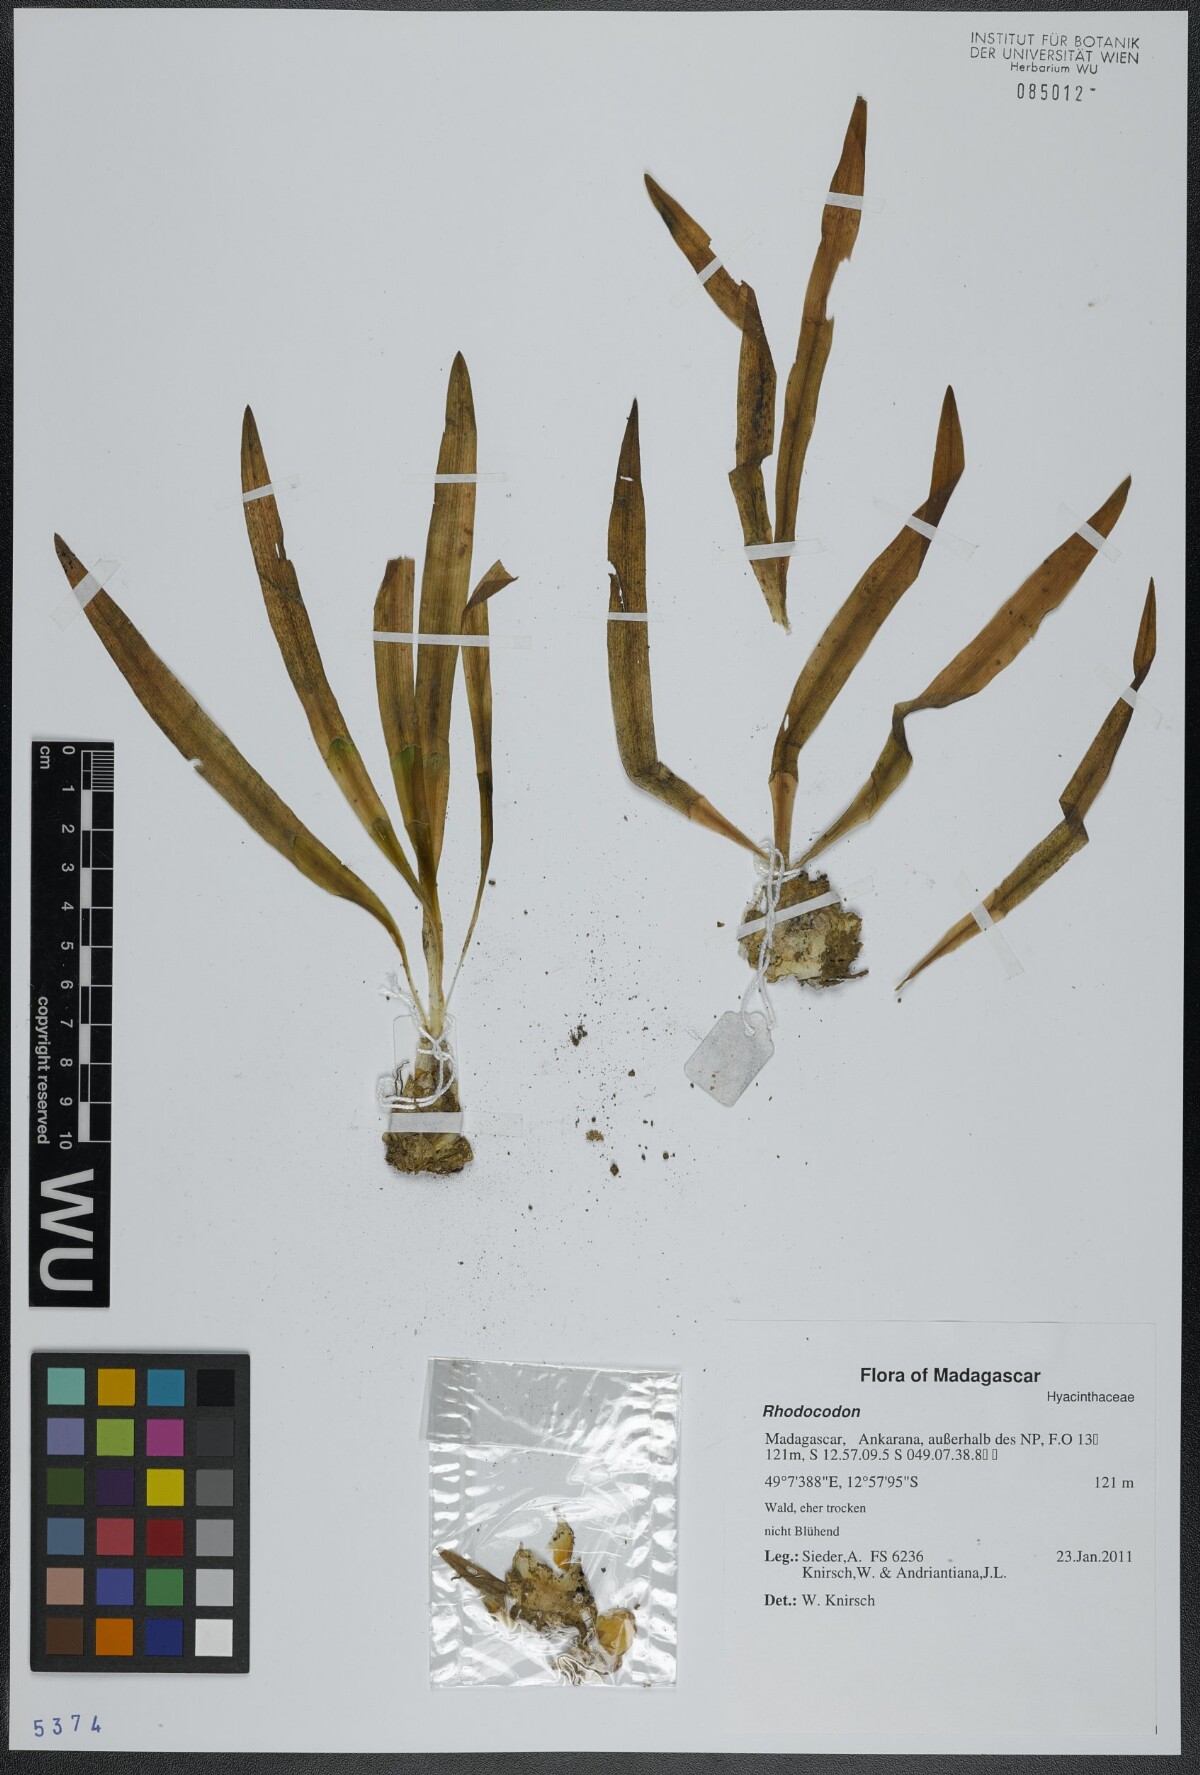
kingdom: Plantae
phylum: Tracheophyta
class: Liliopsida
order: Asparagales
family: Asparagaceae
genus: Drimia
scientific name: Drimia
